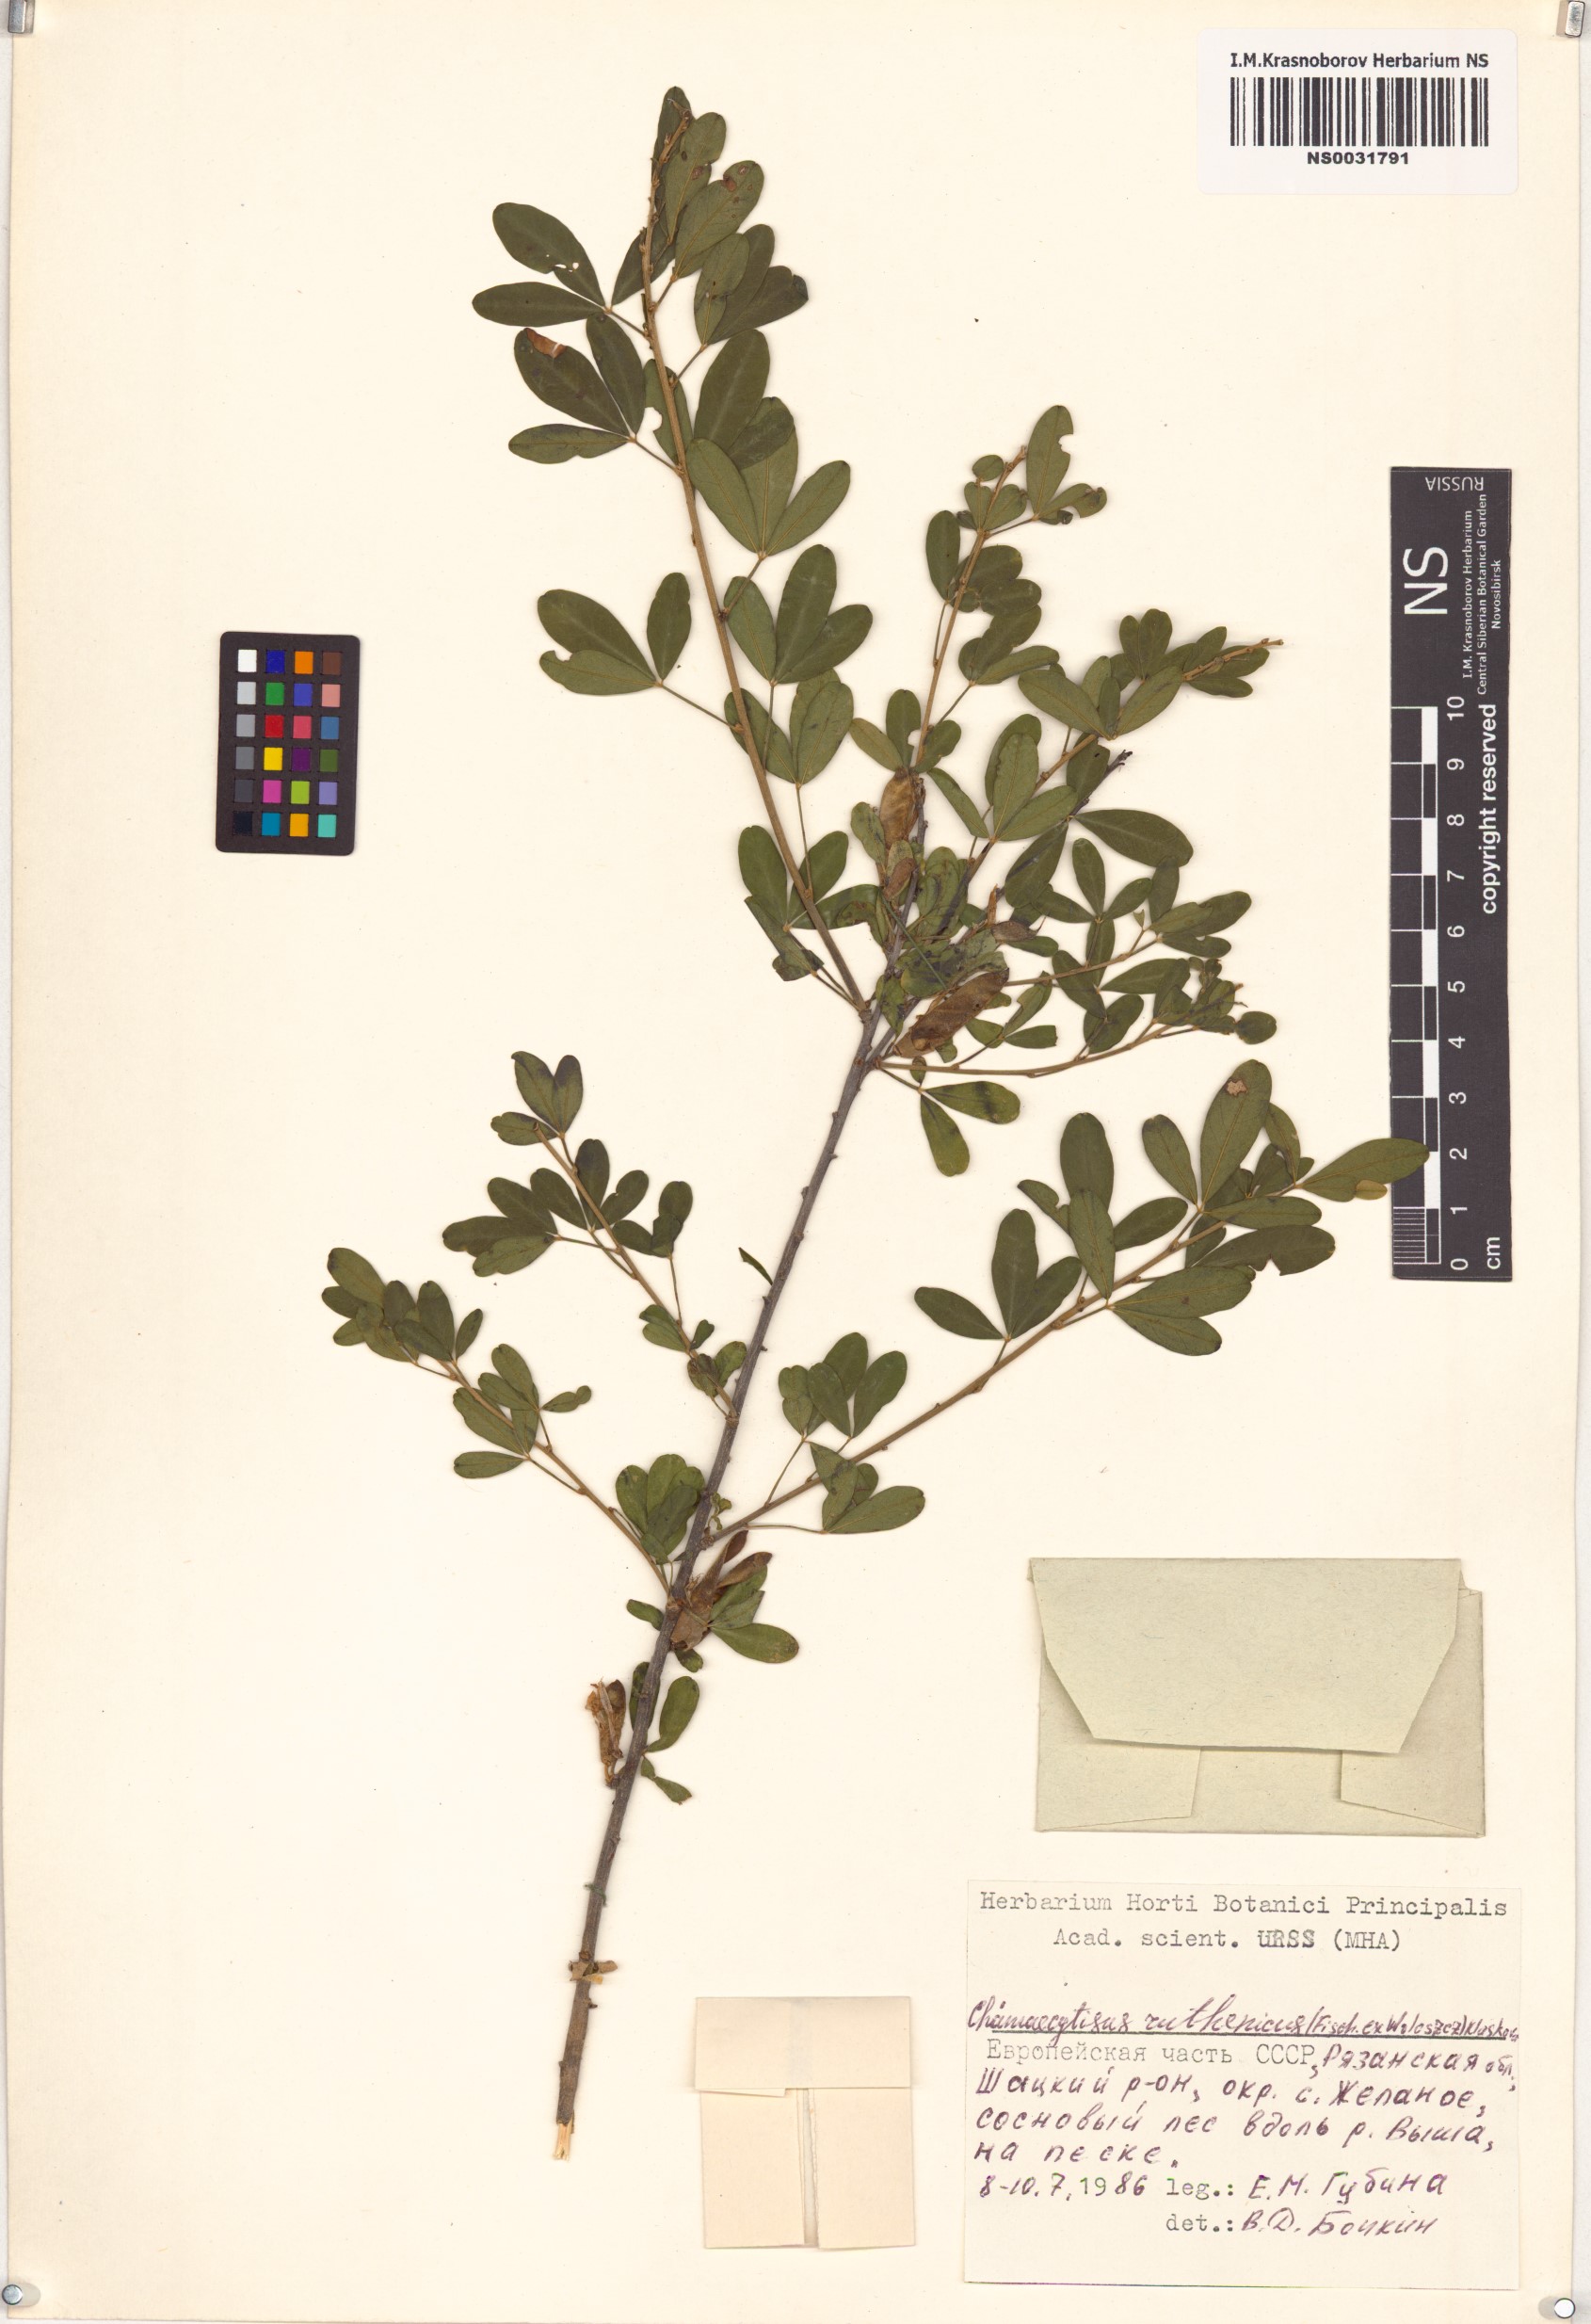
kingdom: Plantae
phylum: Tracheophyta
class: Magnoliopsida
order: Fabales
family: Fabaceae
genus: Chamaecytisus
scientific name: Chamaecytisus ruthenicus
